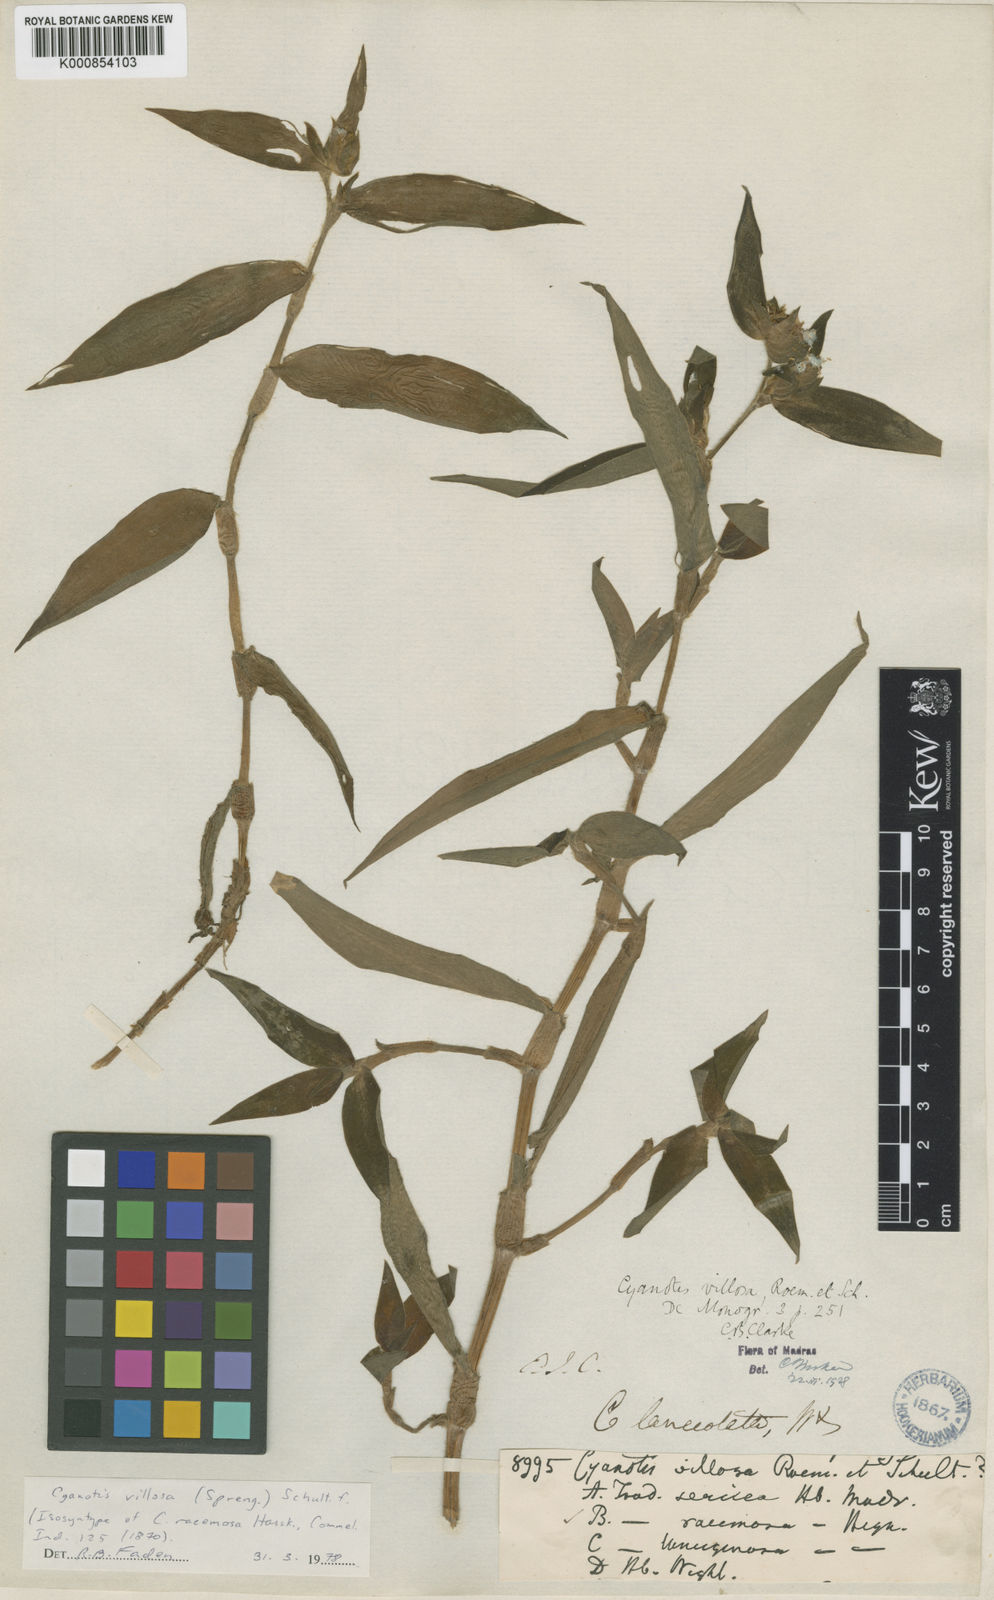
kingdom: Plantae
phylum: Tracheophyta
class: Liliopsida
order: Commelinales
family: Commelinaceae
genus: Cyanotis
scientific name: Cyanotis villosa
